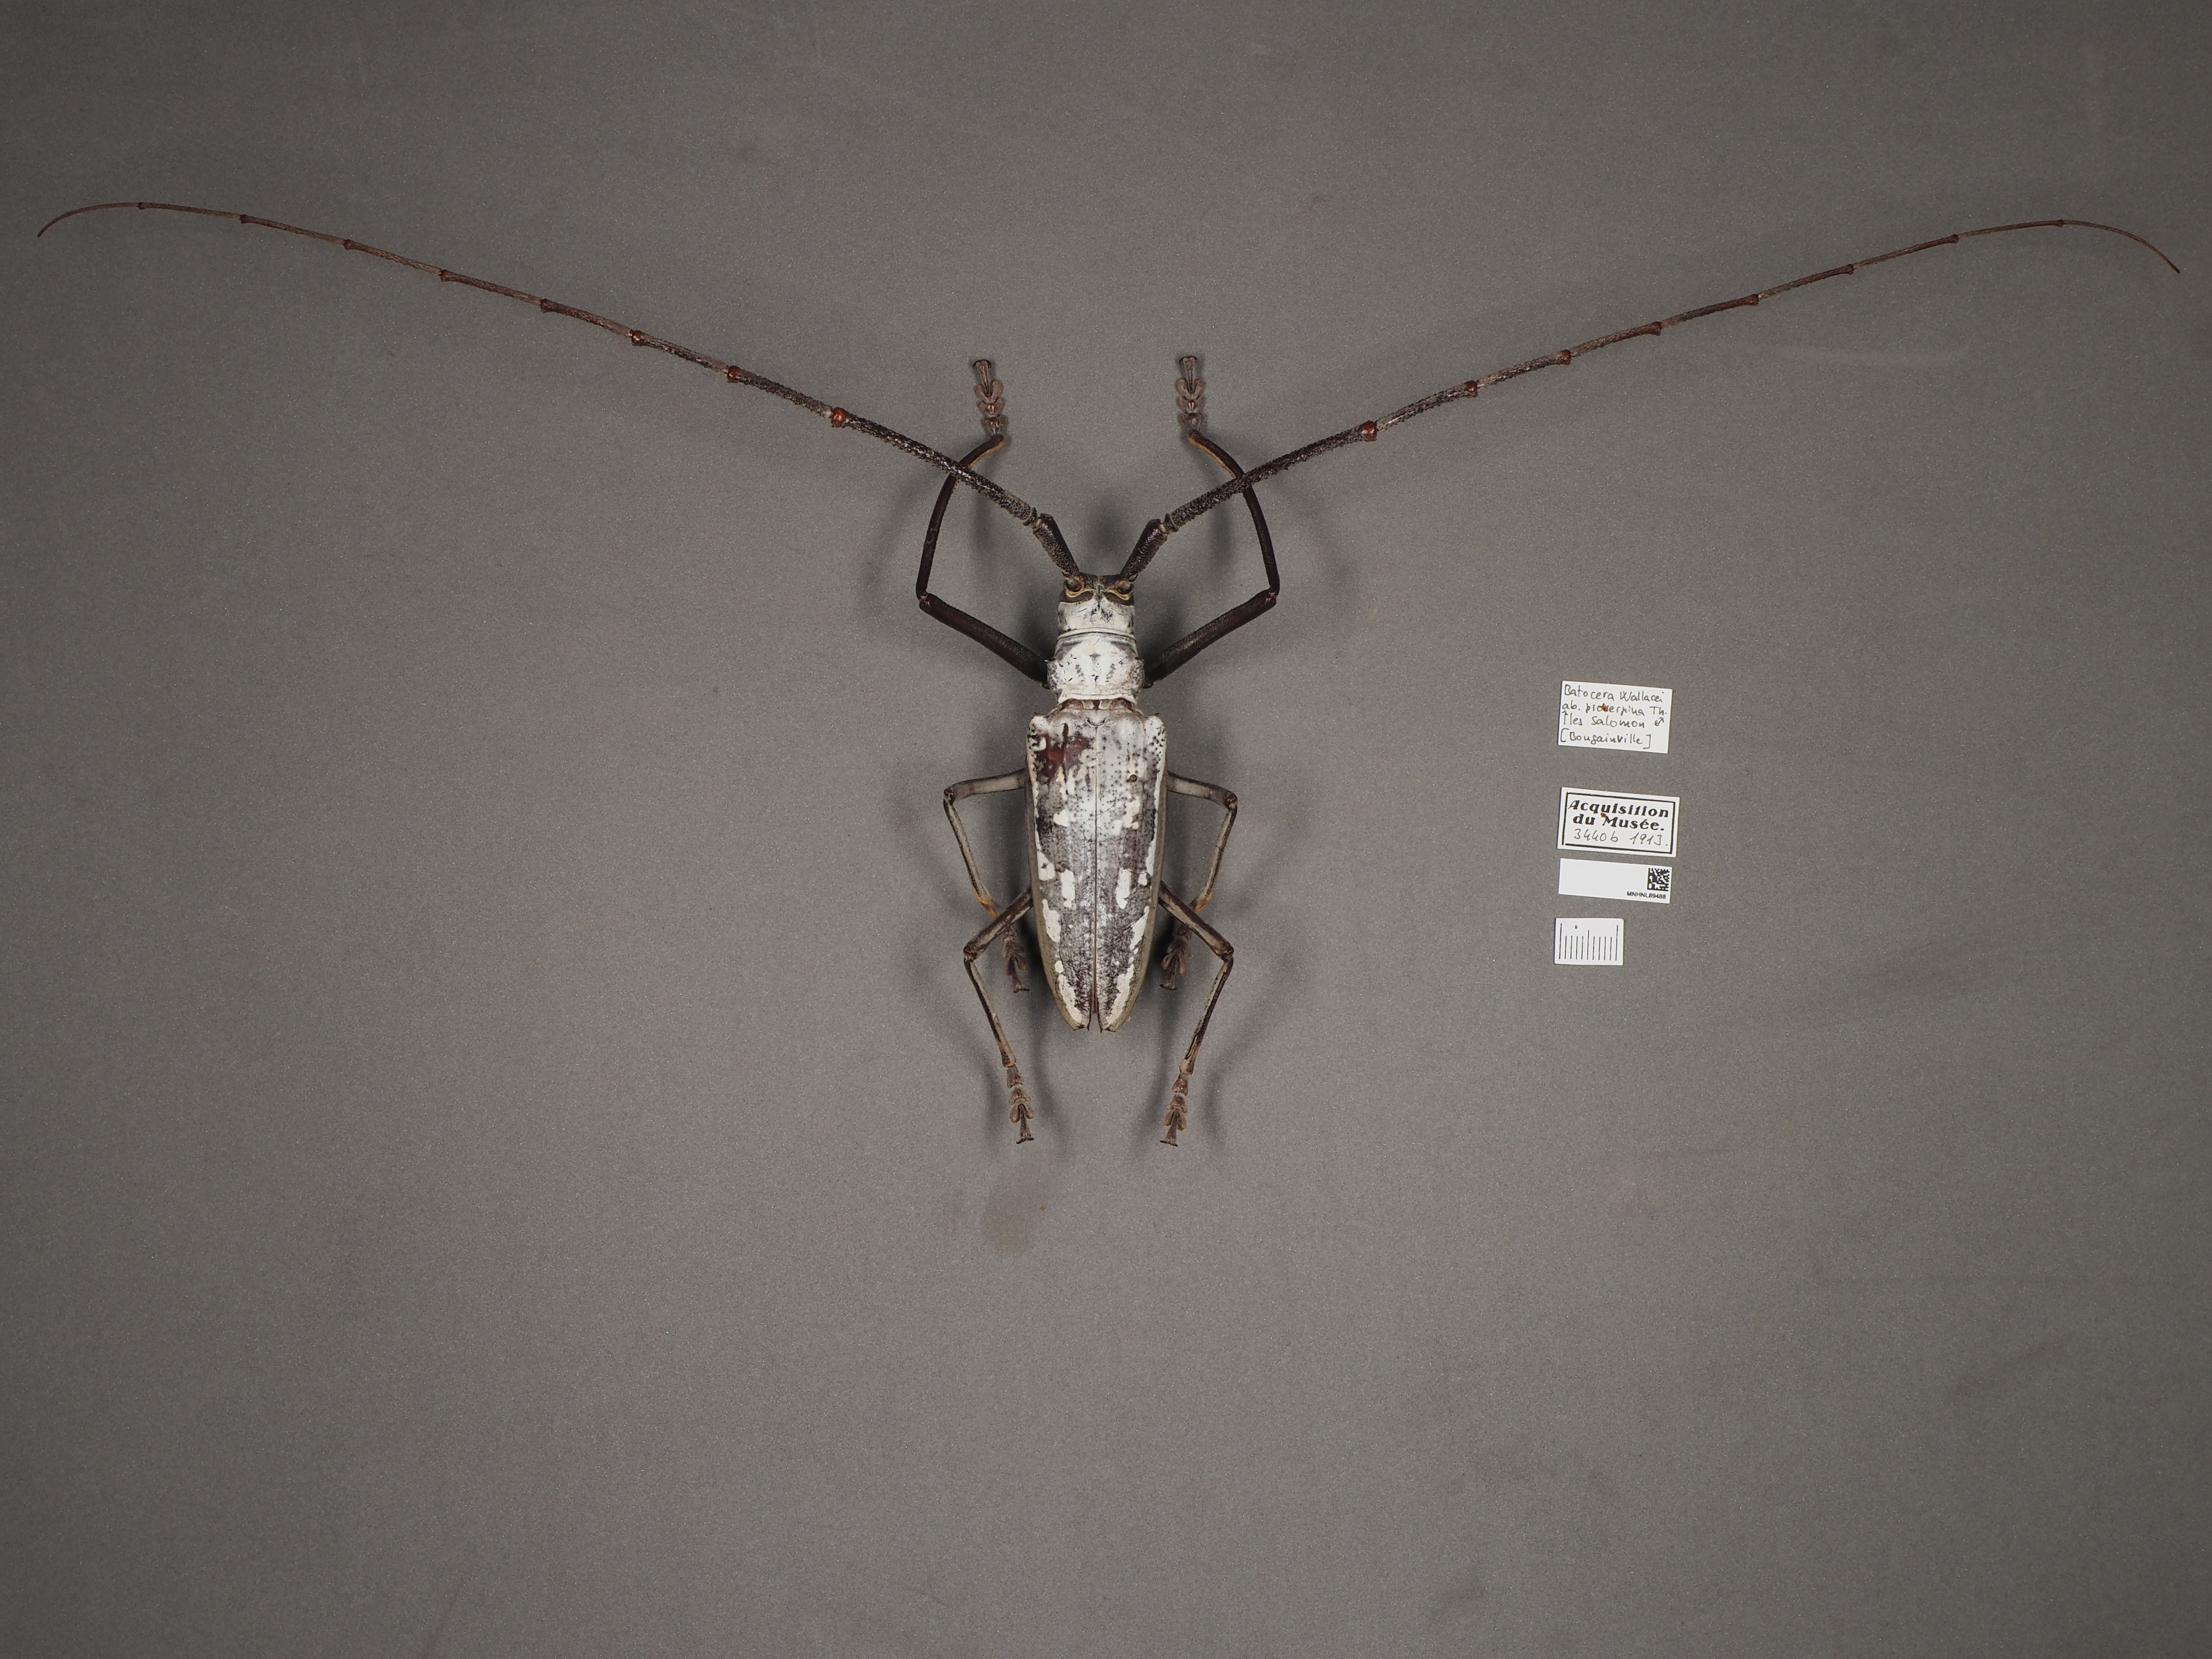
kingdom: Animalia
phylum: Arthropoda
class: Insecta
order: Coleoptera
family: Cerambycidae
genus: Batocera
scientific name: Batocera wallacei
